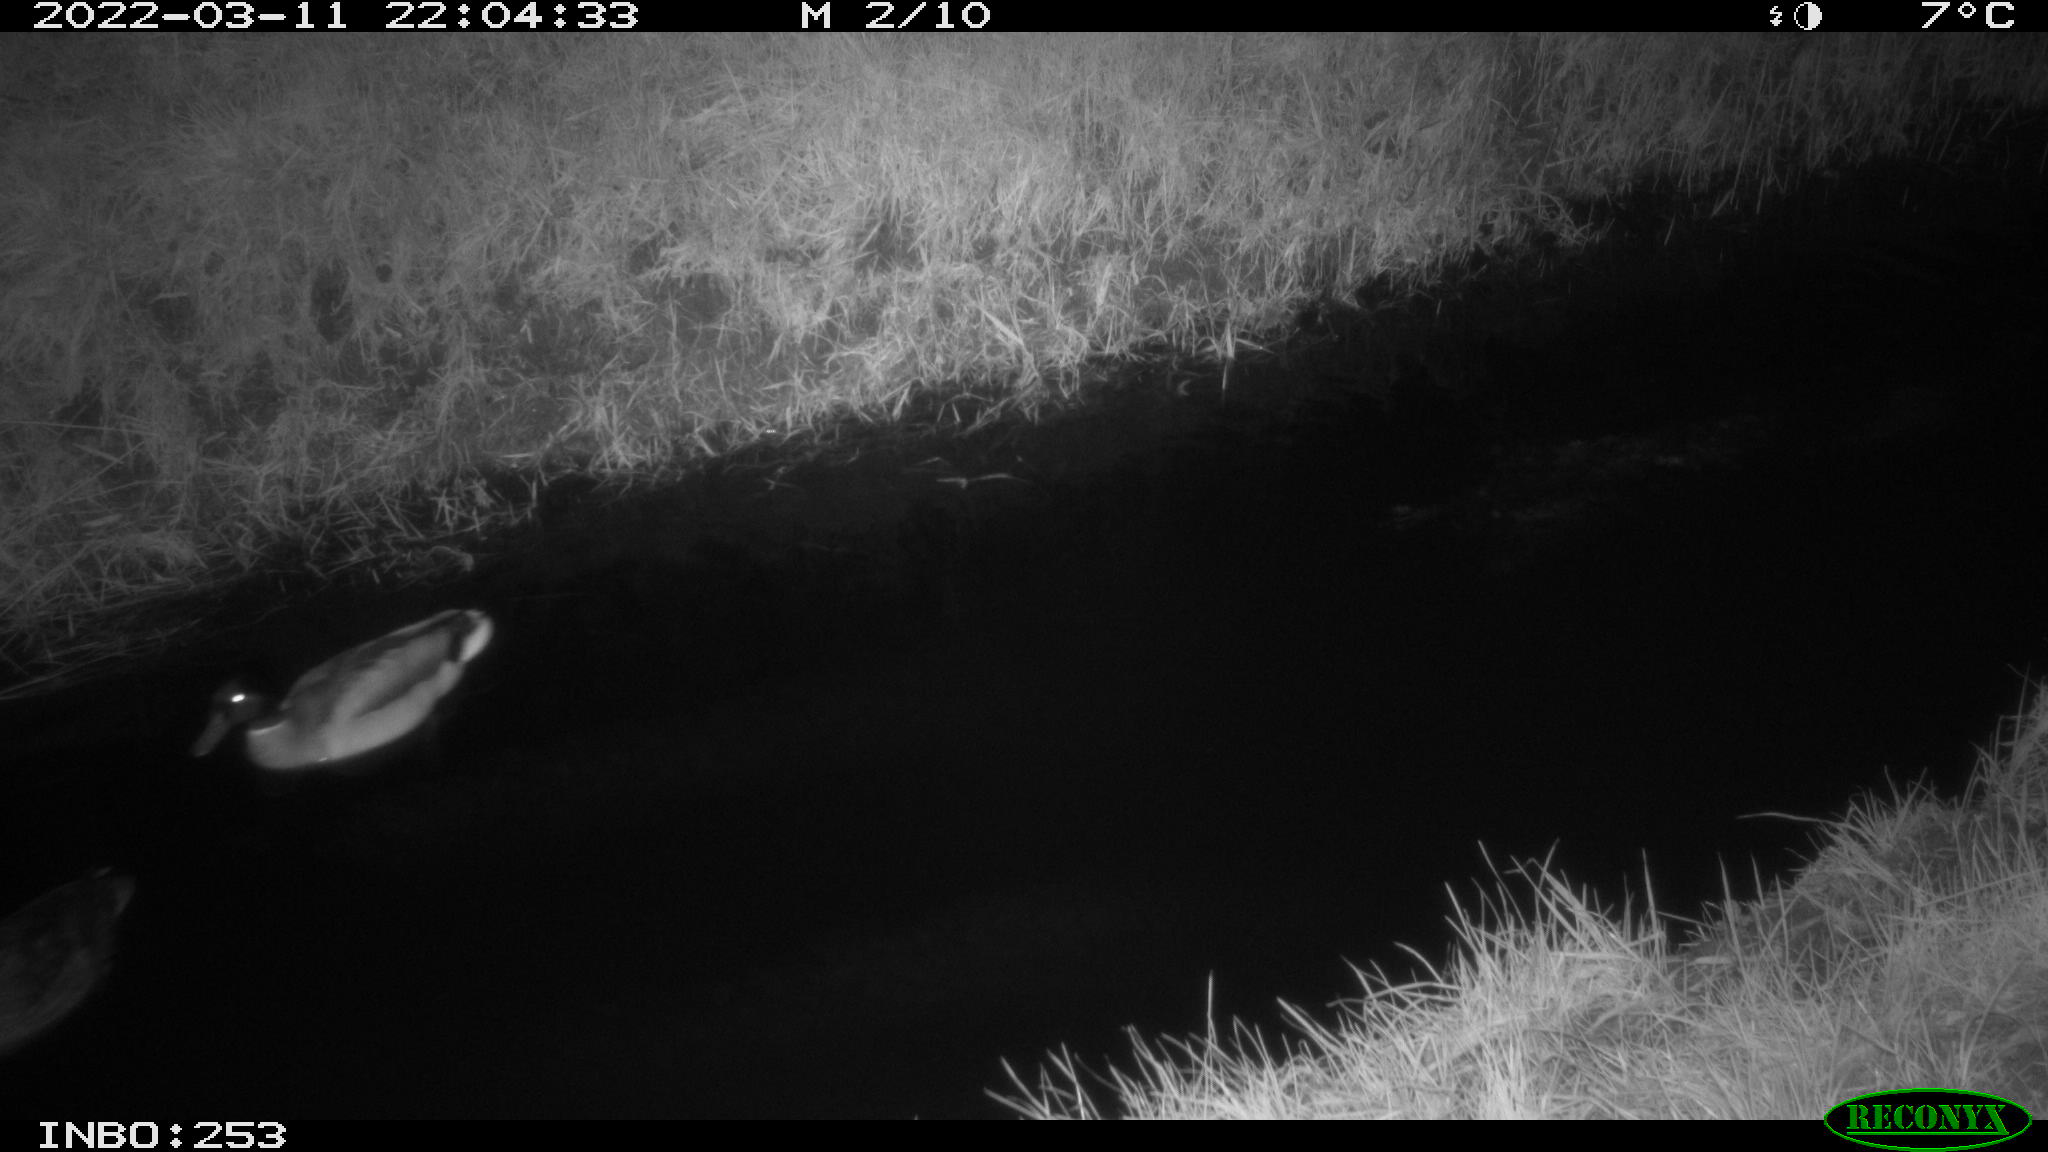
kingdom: Animalia
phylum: Chordata
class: Aves
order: Anseriformes
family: Anatidae
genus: Anas
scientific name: Anas platyrhynchos
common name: Mallard
